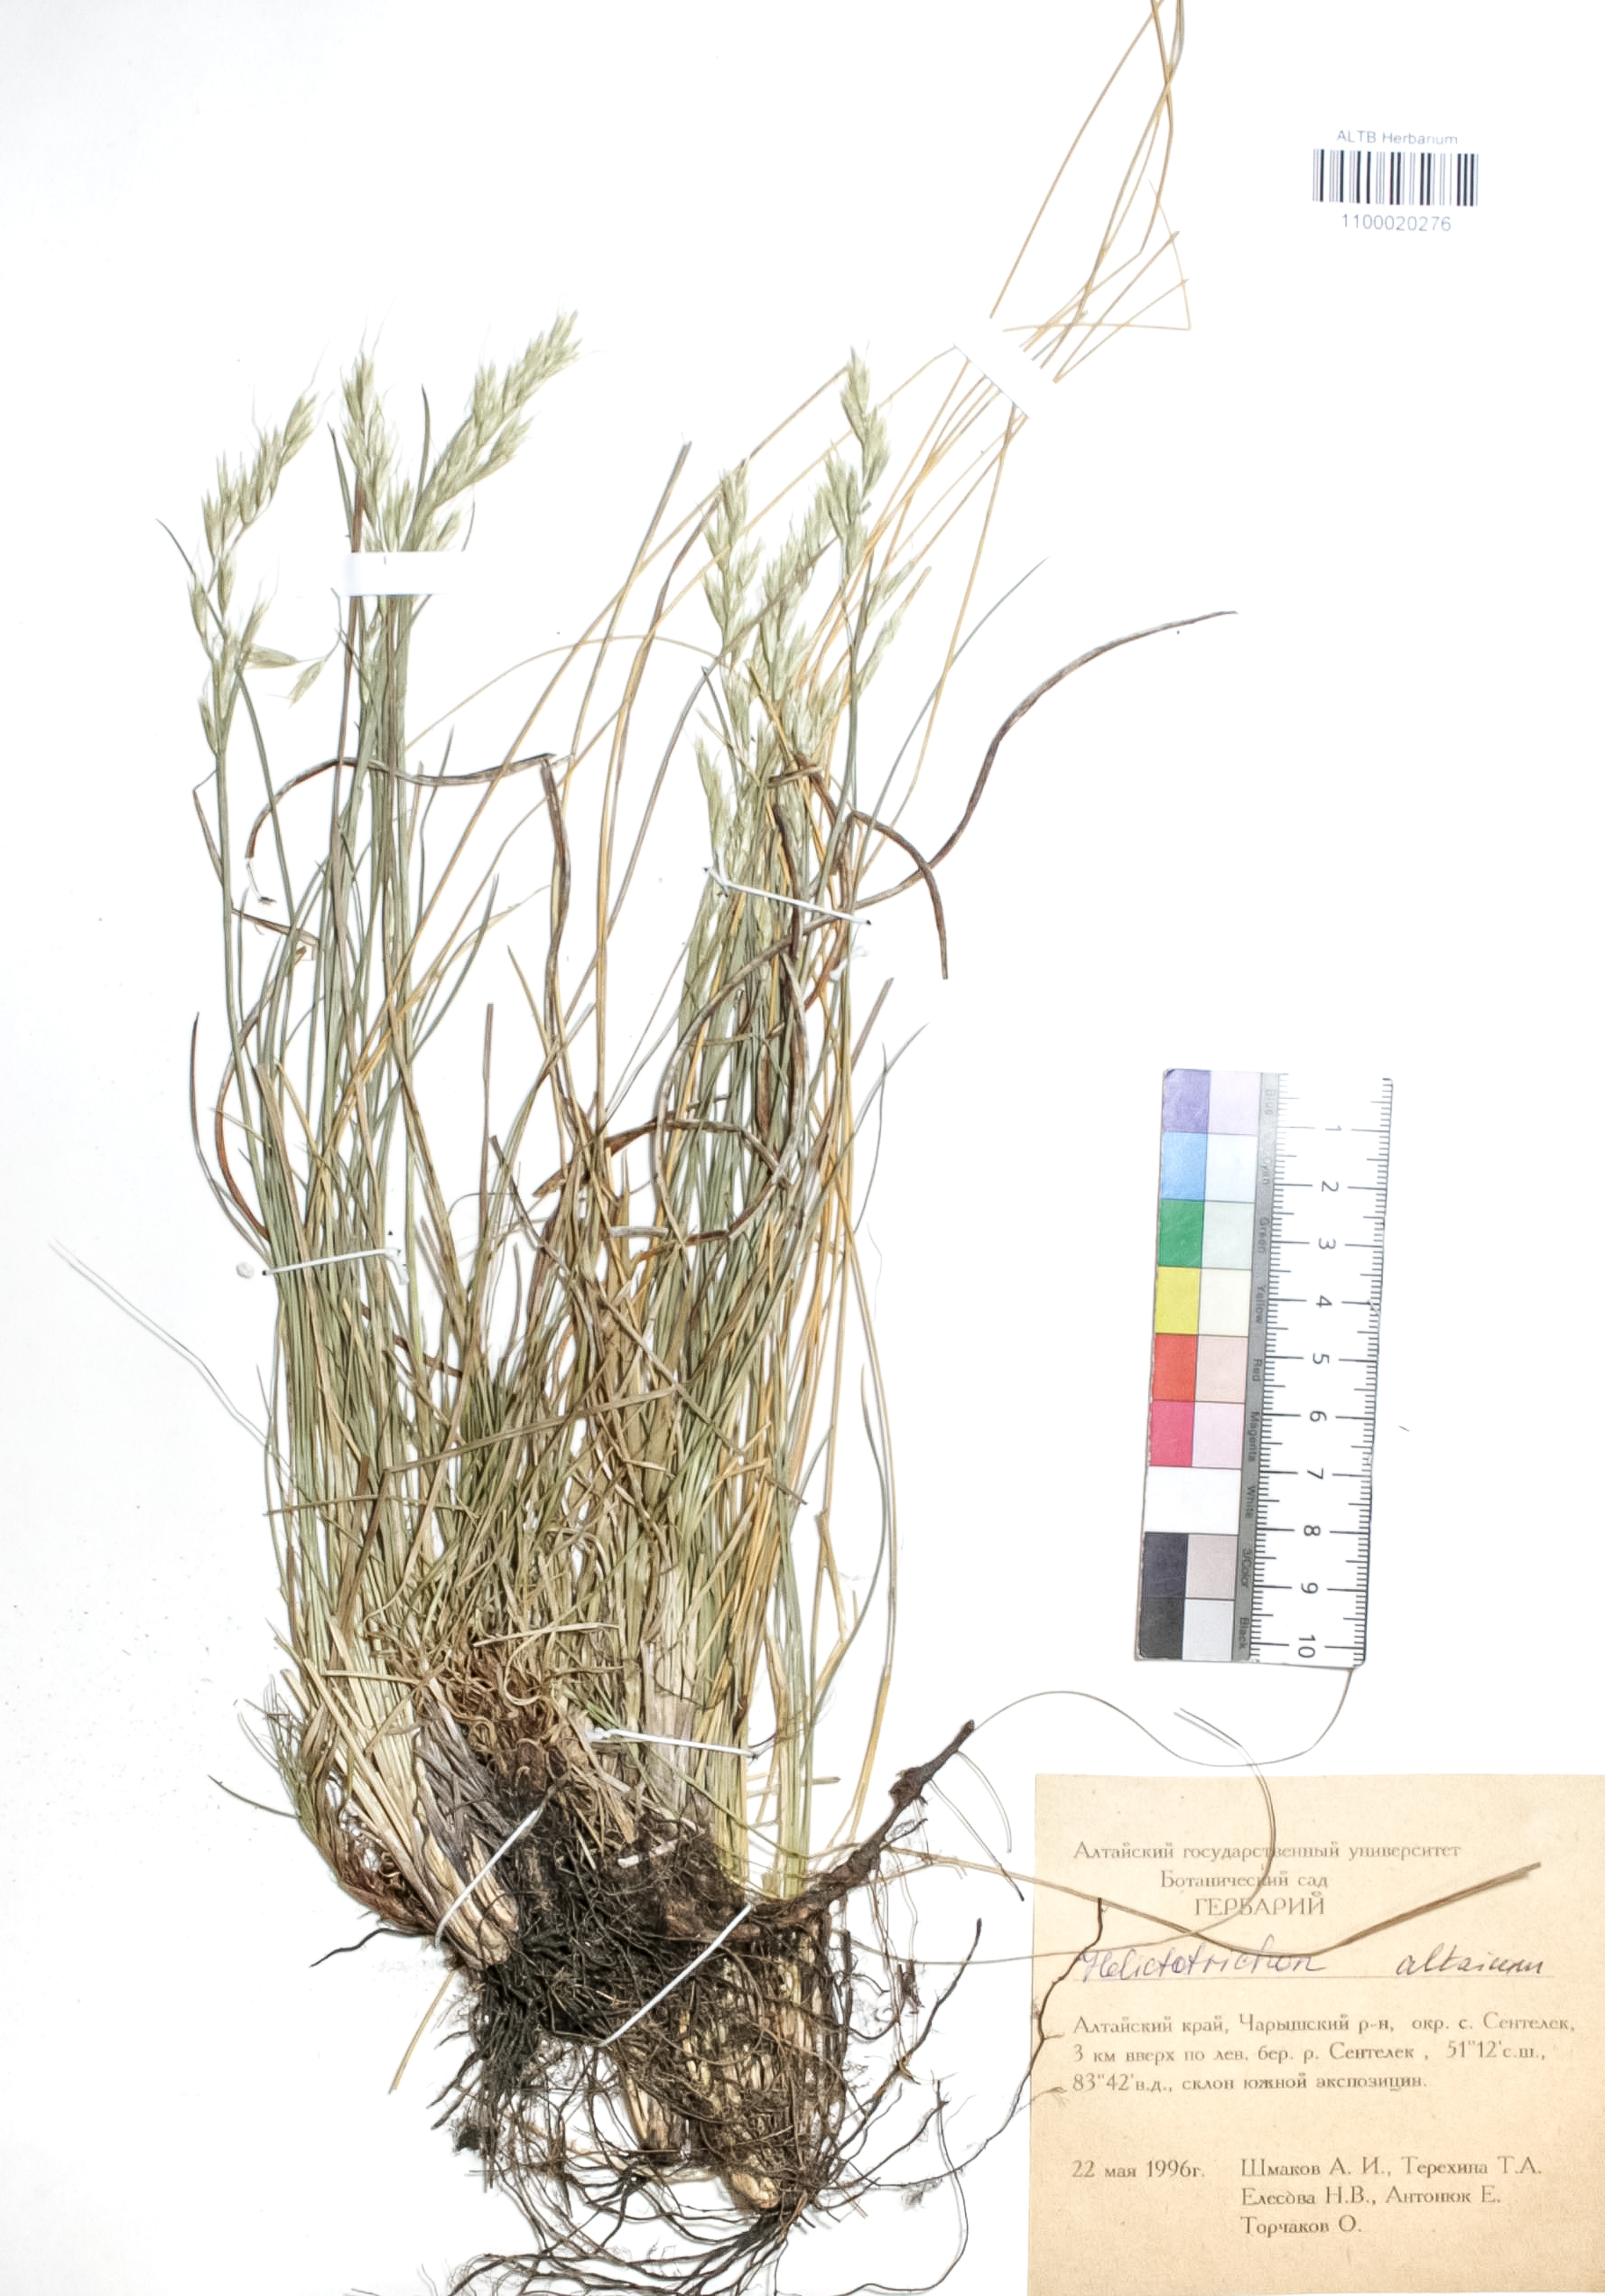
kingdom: Plantae
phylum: Tracheophyta
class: Magnoliopsida
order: Ericales
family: Primulaceae
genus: Androsace
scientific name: Androsace septentrionalis
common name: Hairy northern fairy-candelabra
